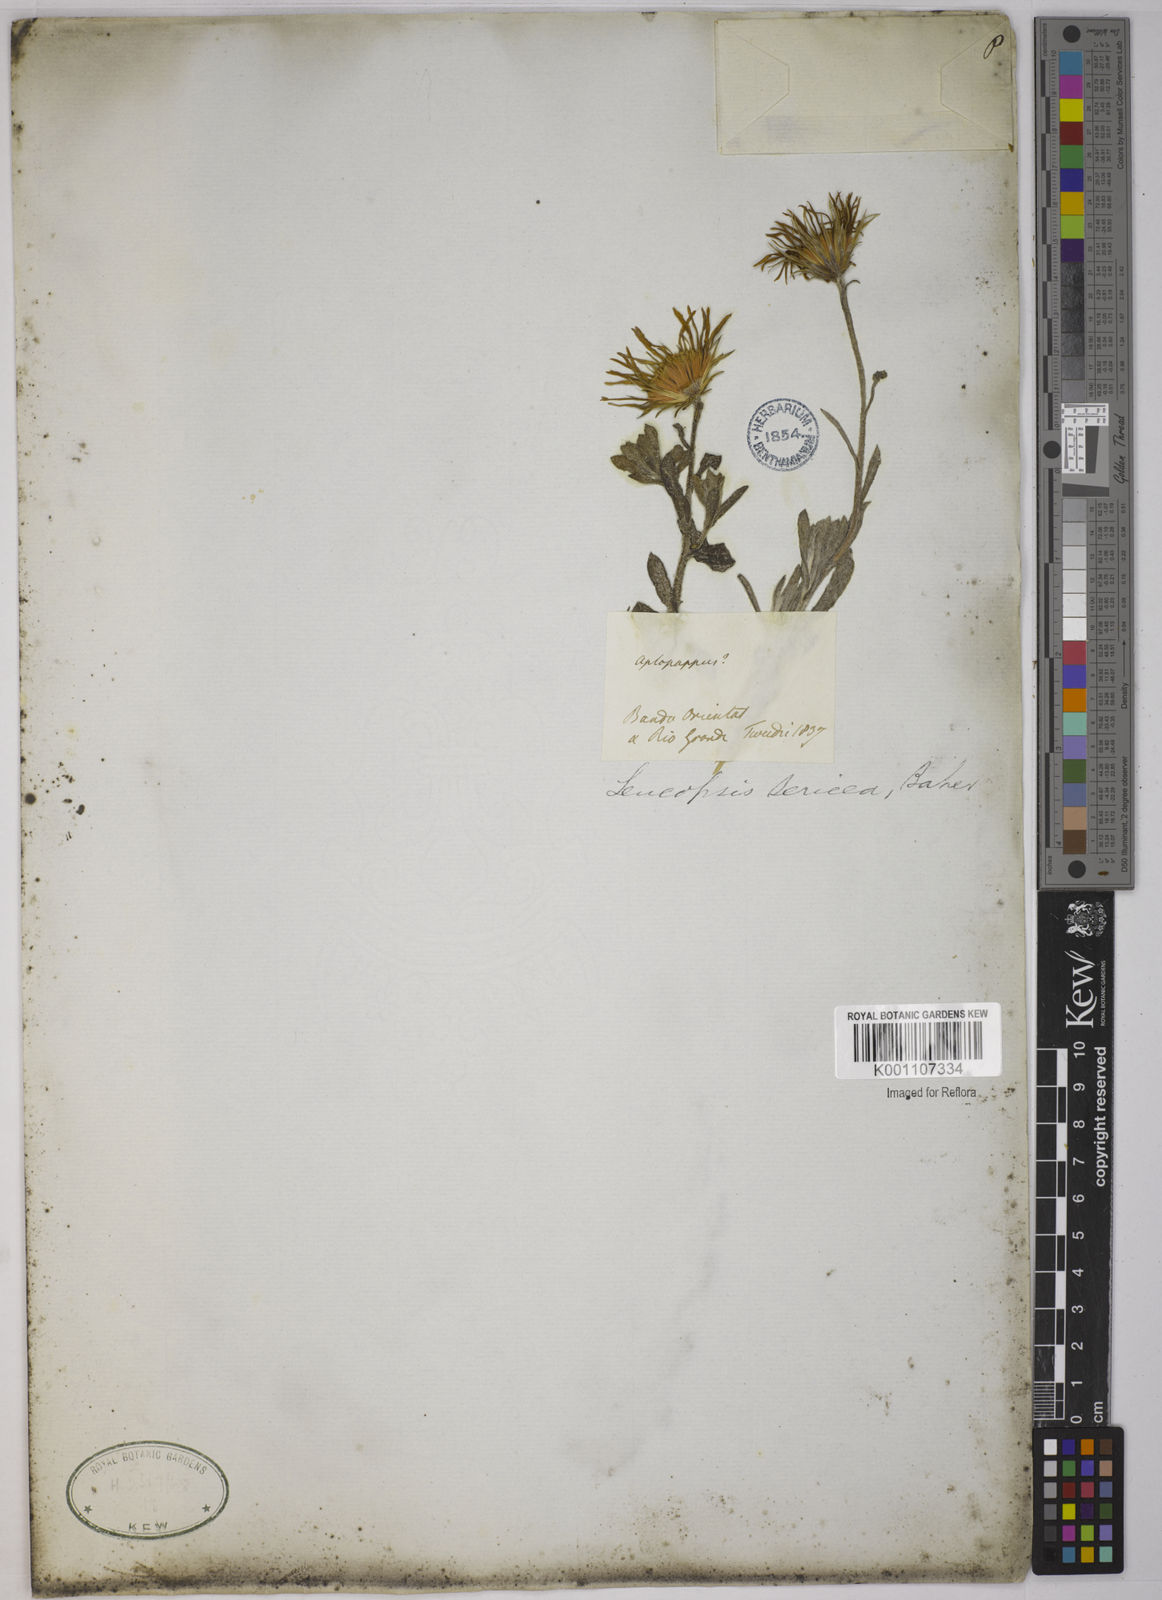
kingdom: Plantae
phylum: Tracheophyta
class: Magnoliopsida
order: Asterales
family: Asteraceae
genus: Noticastrum
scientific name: Noticastrum sericeum
